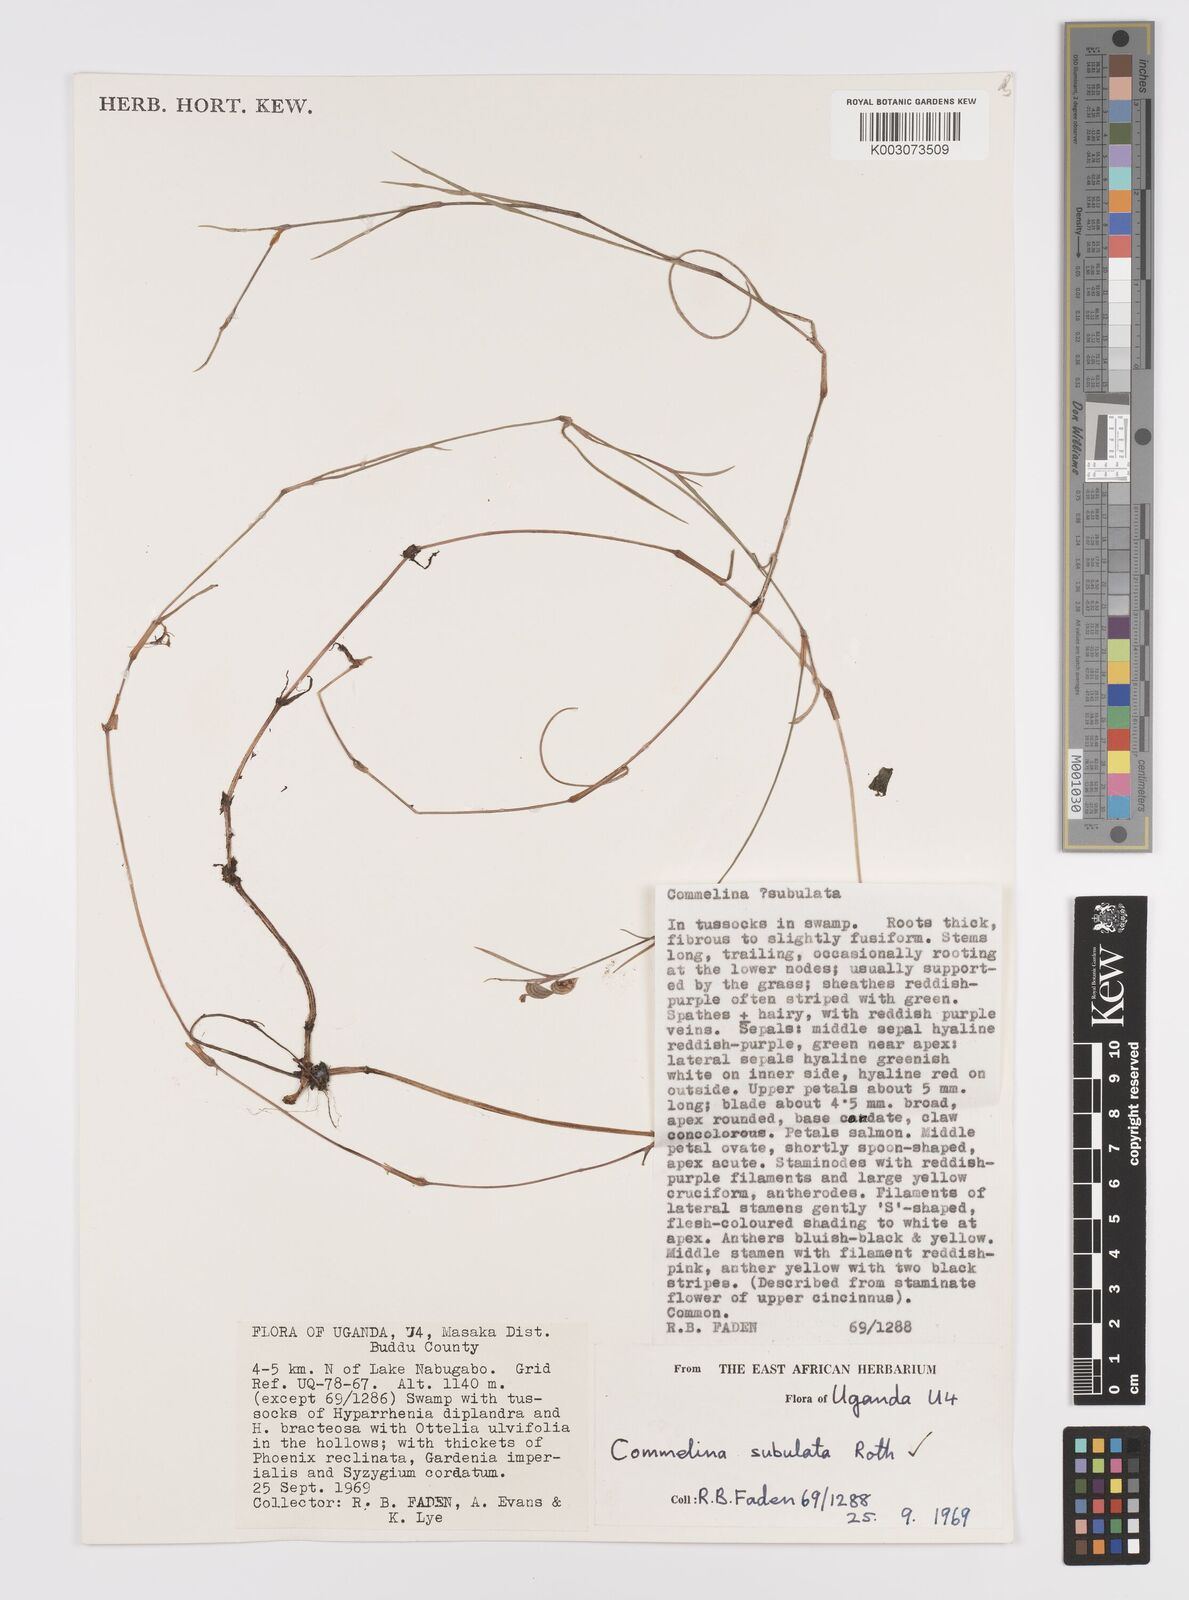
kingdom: Plantae
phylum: Tracheophyta
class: Liliopsida
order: Commelinales
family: Commelinaceae
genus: Commelina
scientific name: Commelina subulata
